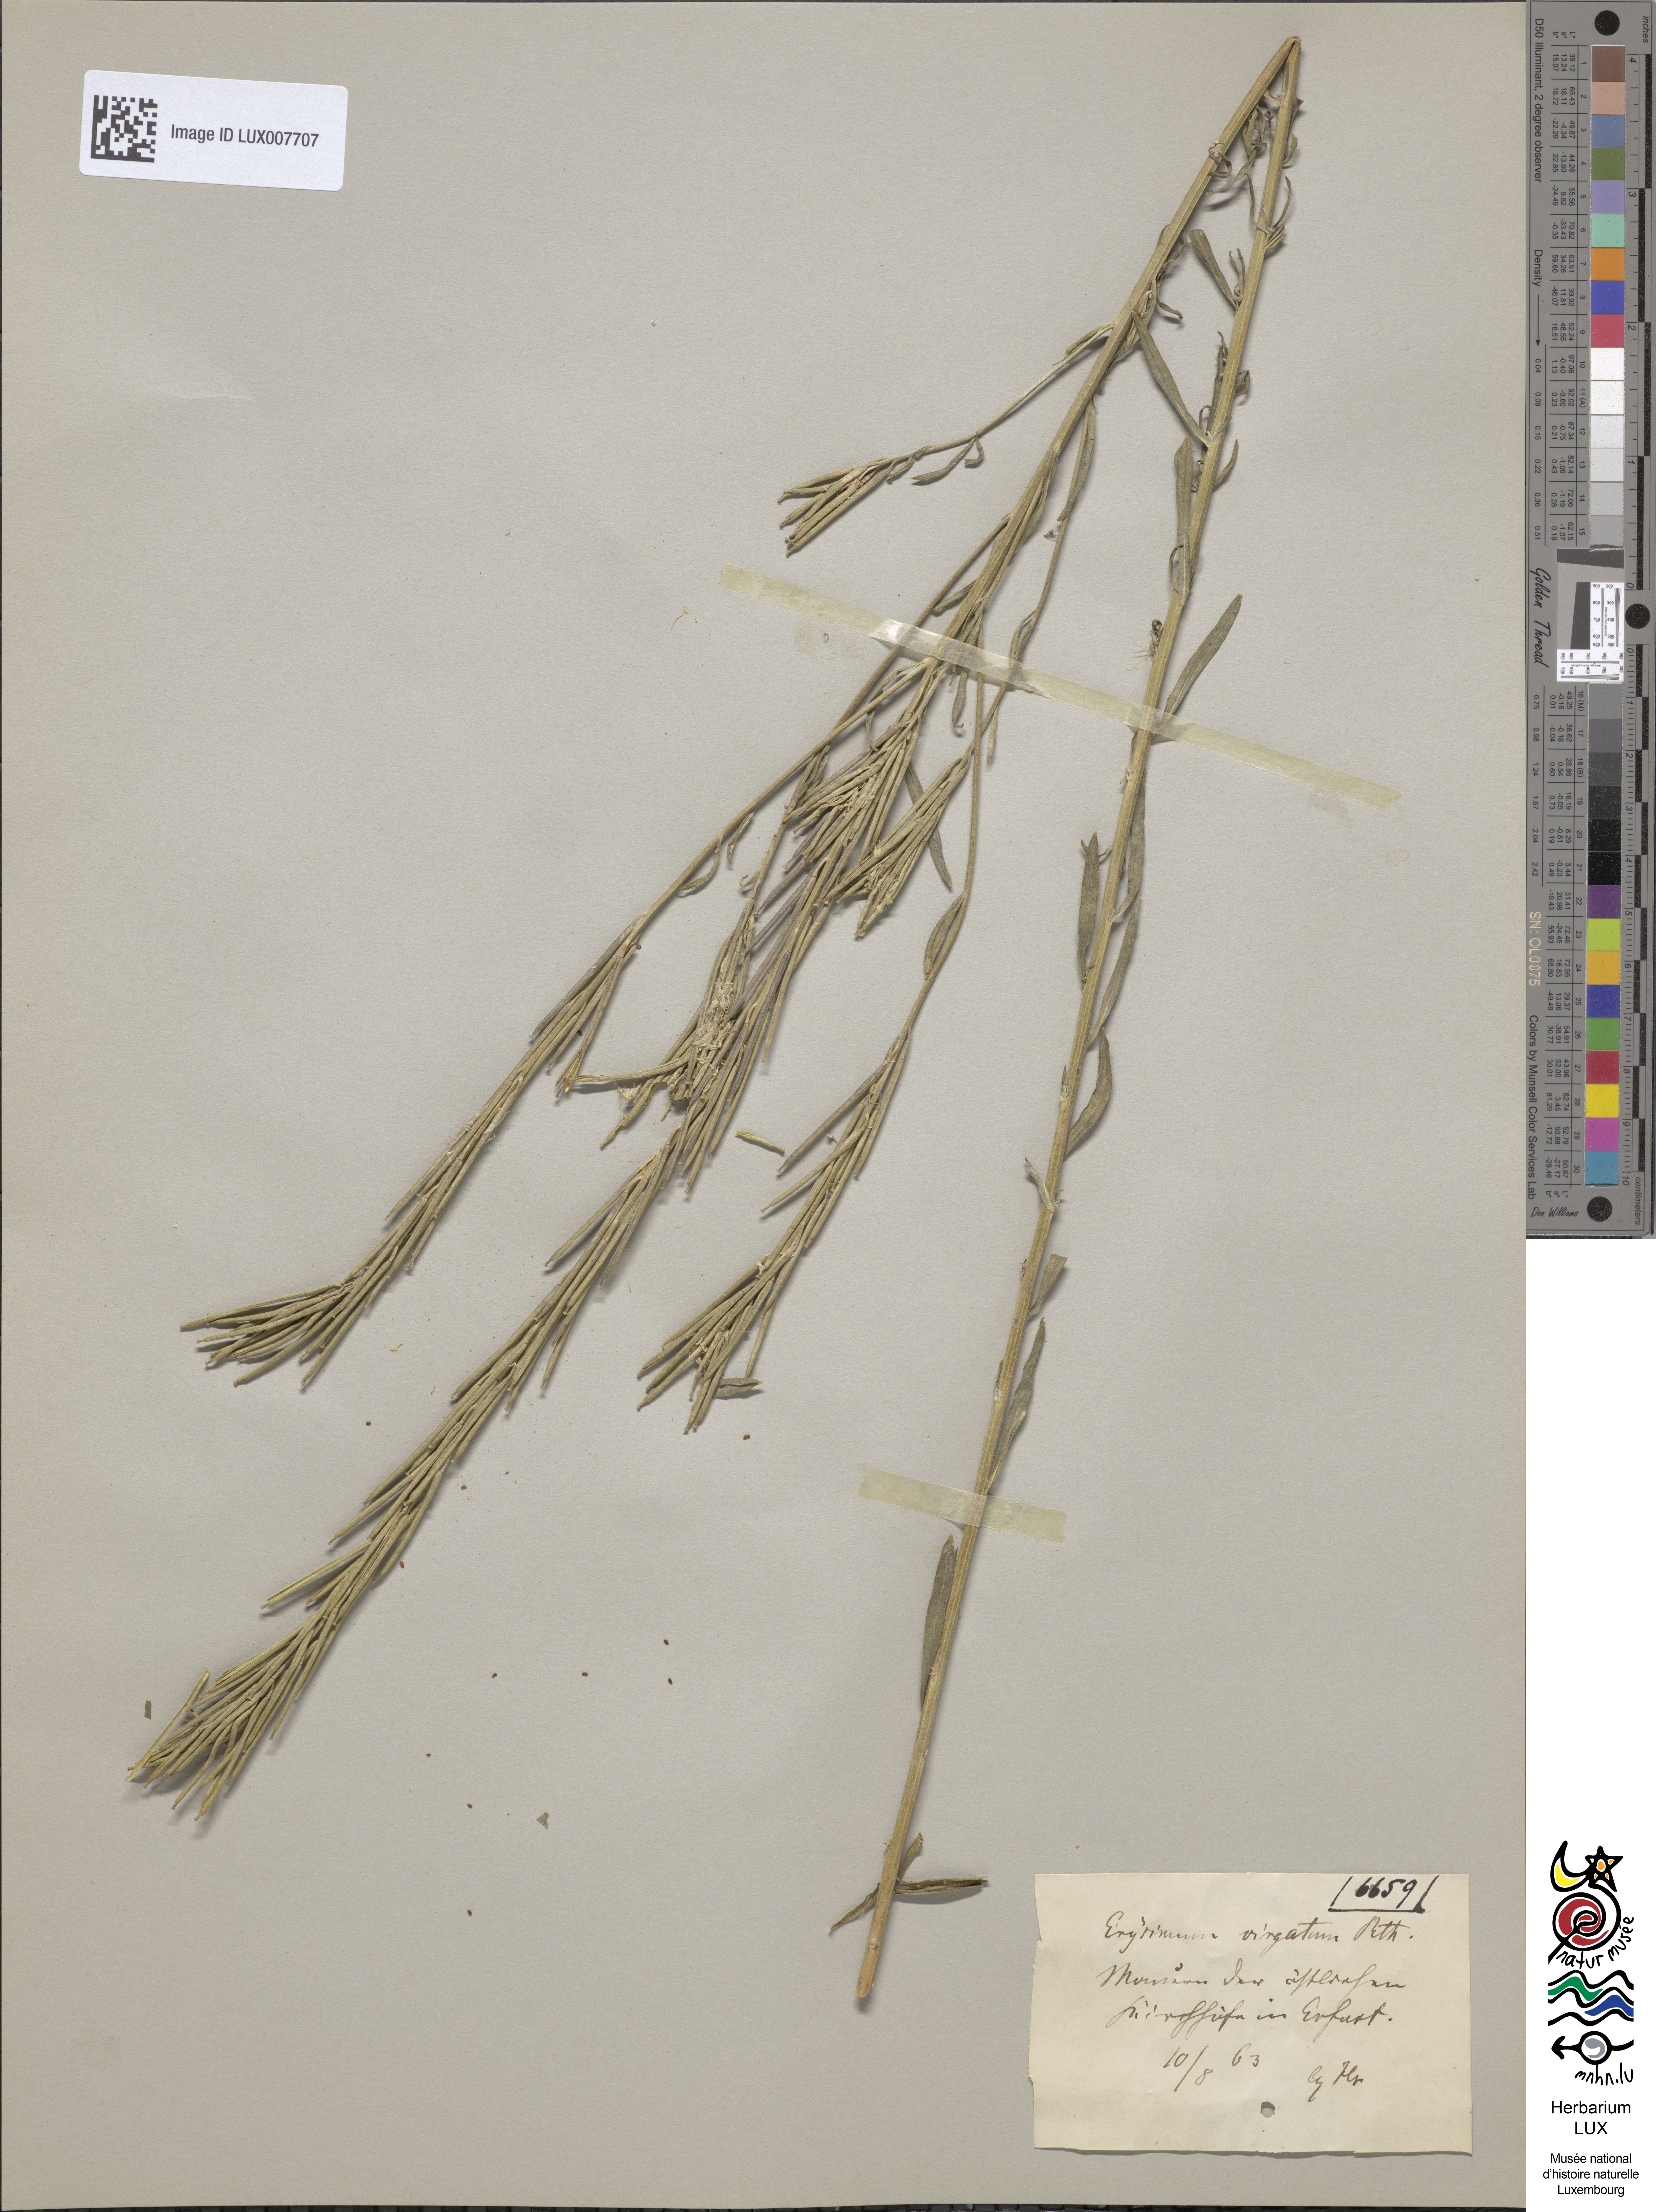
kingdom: Plantae
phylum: Tracheophyta
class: Magnoliopsida
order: Brassicales
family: Brassicaceae
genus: Erysimum
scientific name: Erysimum hieraciifolium
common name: European wallflower
